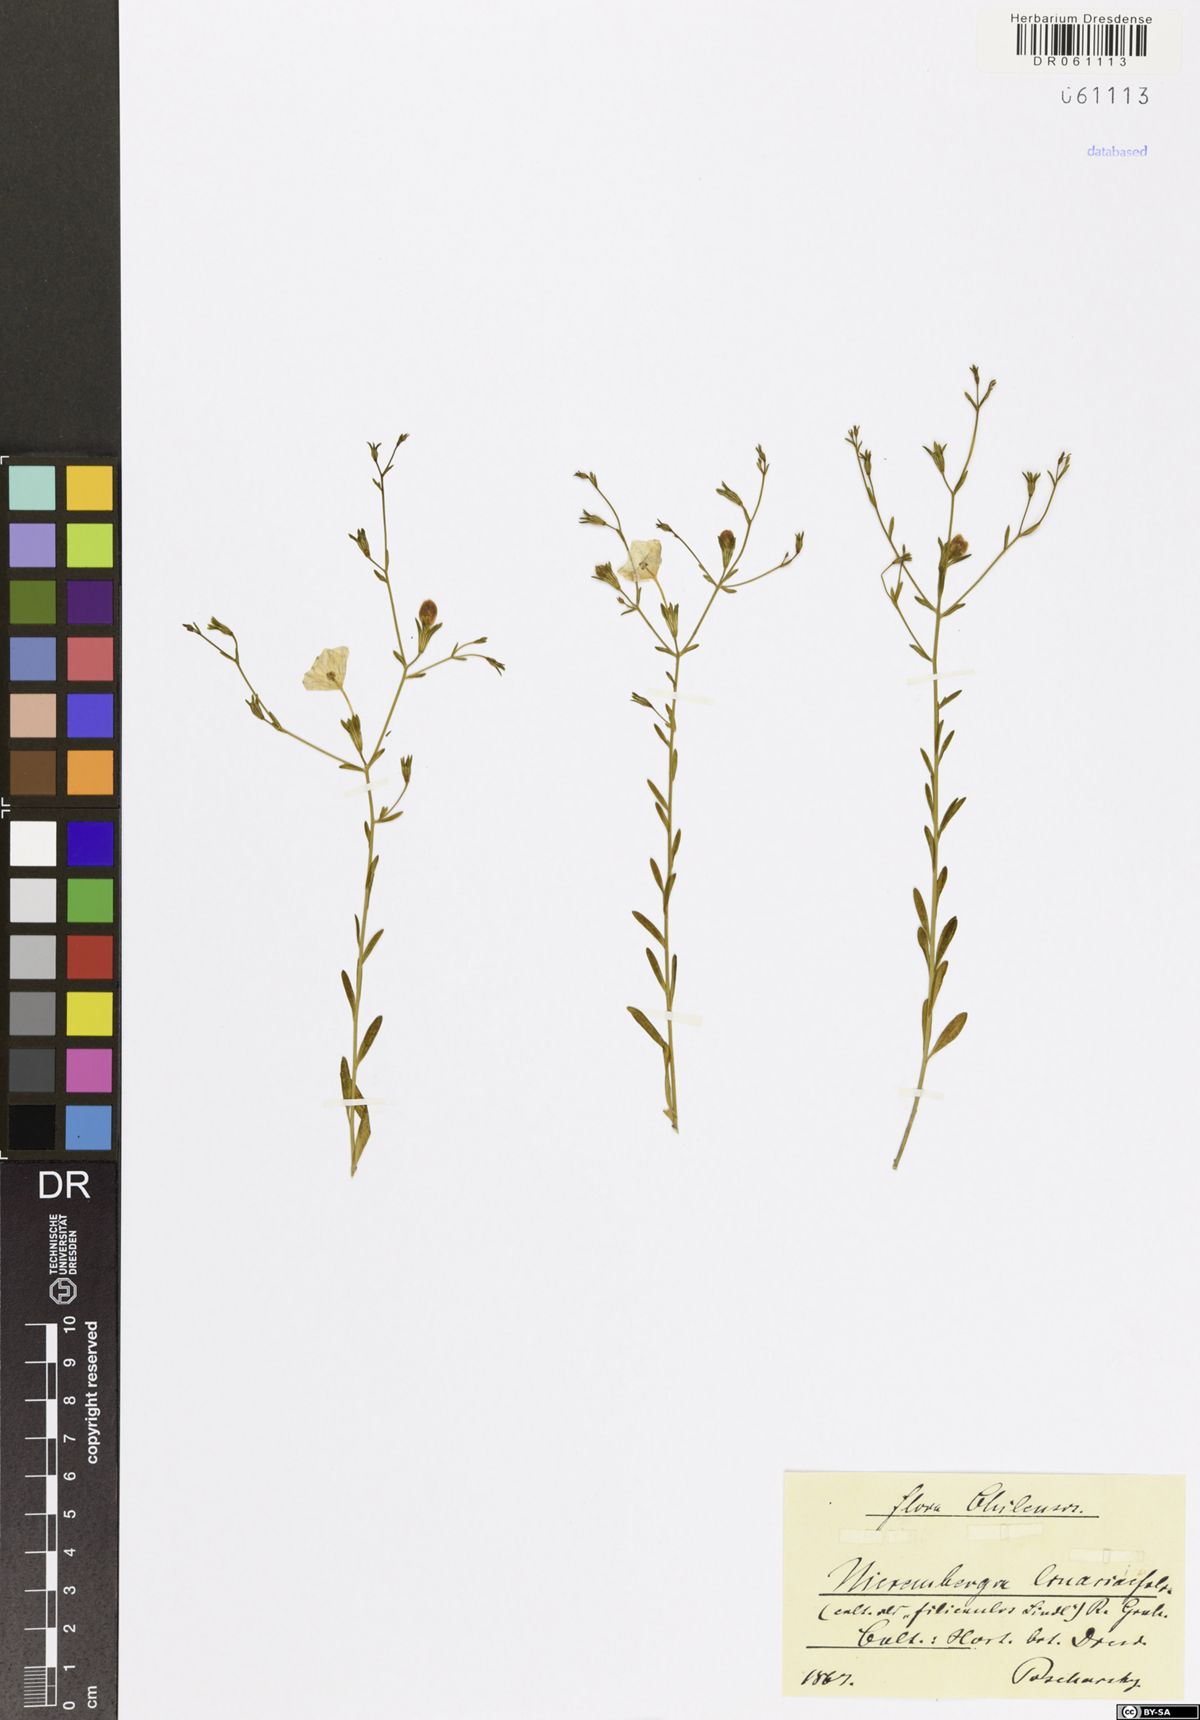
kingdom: Plantae
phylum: Tracheophyta
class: Magnoliopsida
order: Solanales
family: Solanaceae
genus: Nierembergia
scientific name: Nierembergia linariifolia
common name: Dwarf cupflower
